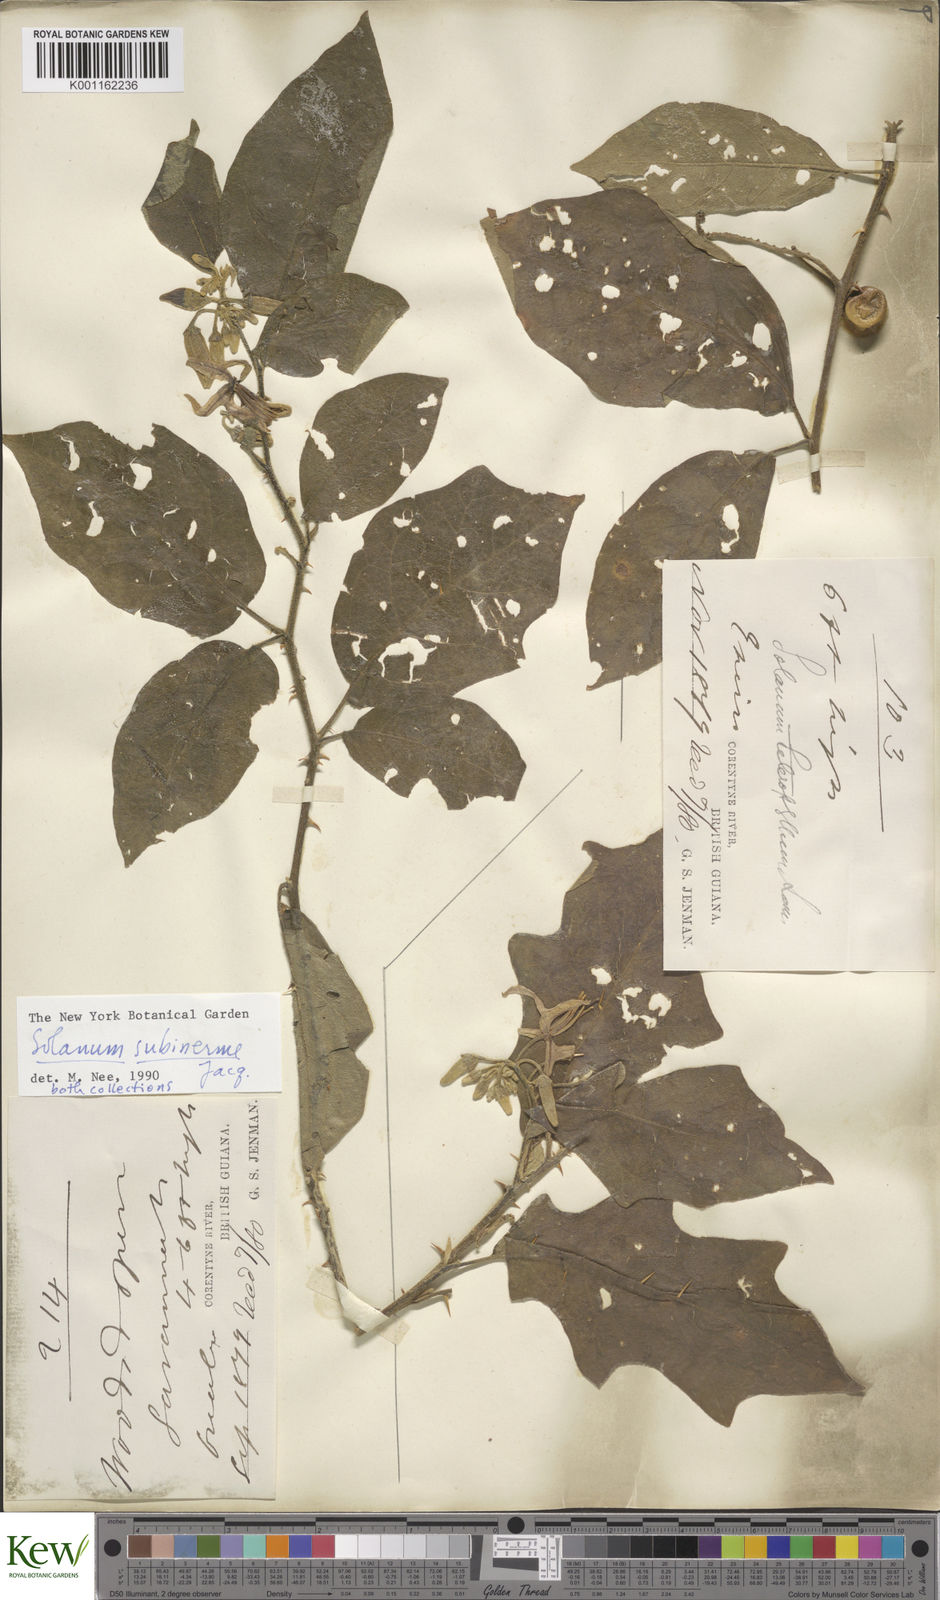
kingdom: Plantae
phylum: Tracheophyta
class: Magnoliopsida
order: Solanales
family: Solanaceae
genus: Solanum
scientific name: Solanum subinerme
